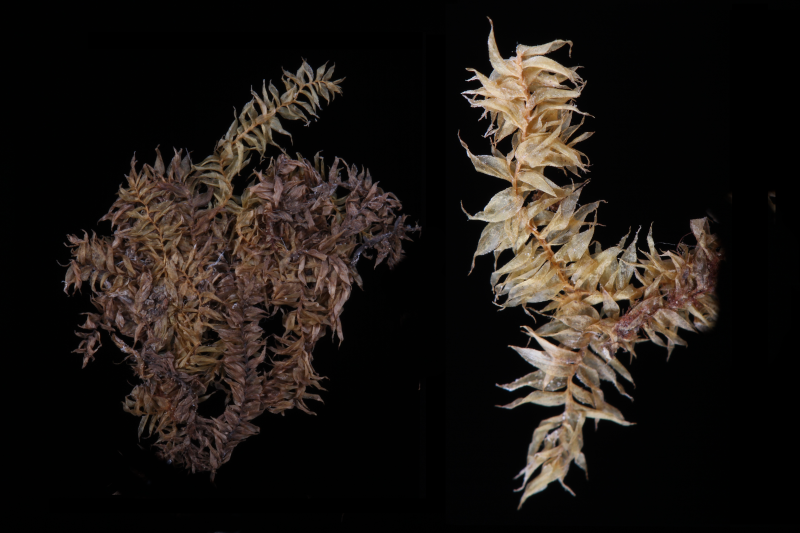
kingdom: Plantae
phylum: Bryophyta
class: Bryopsida
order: Hypnales
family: Meteoriaceae
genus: Pseudotrachypus
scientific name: Pseudotrachypus wallichii
